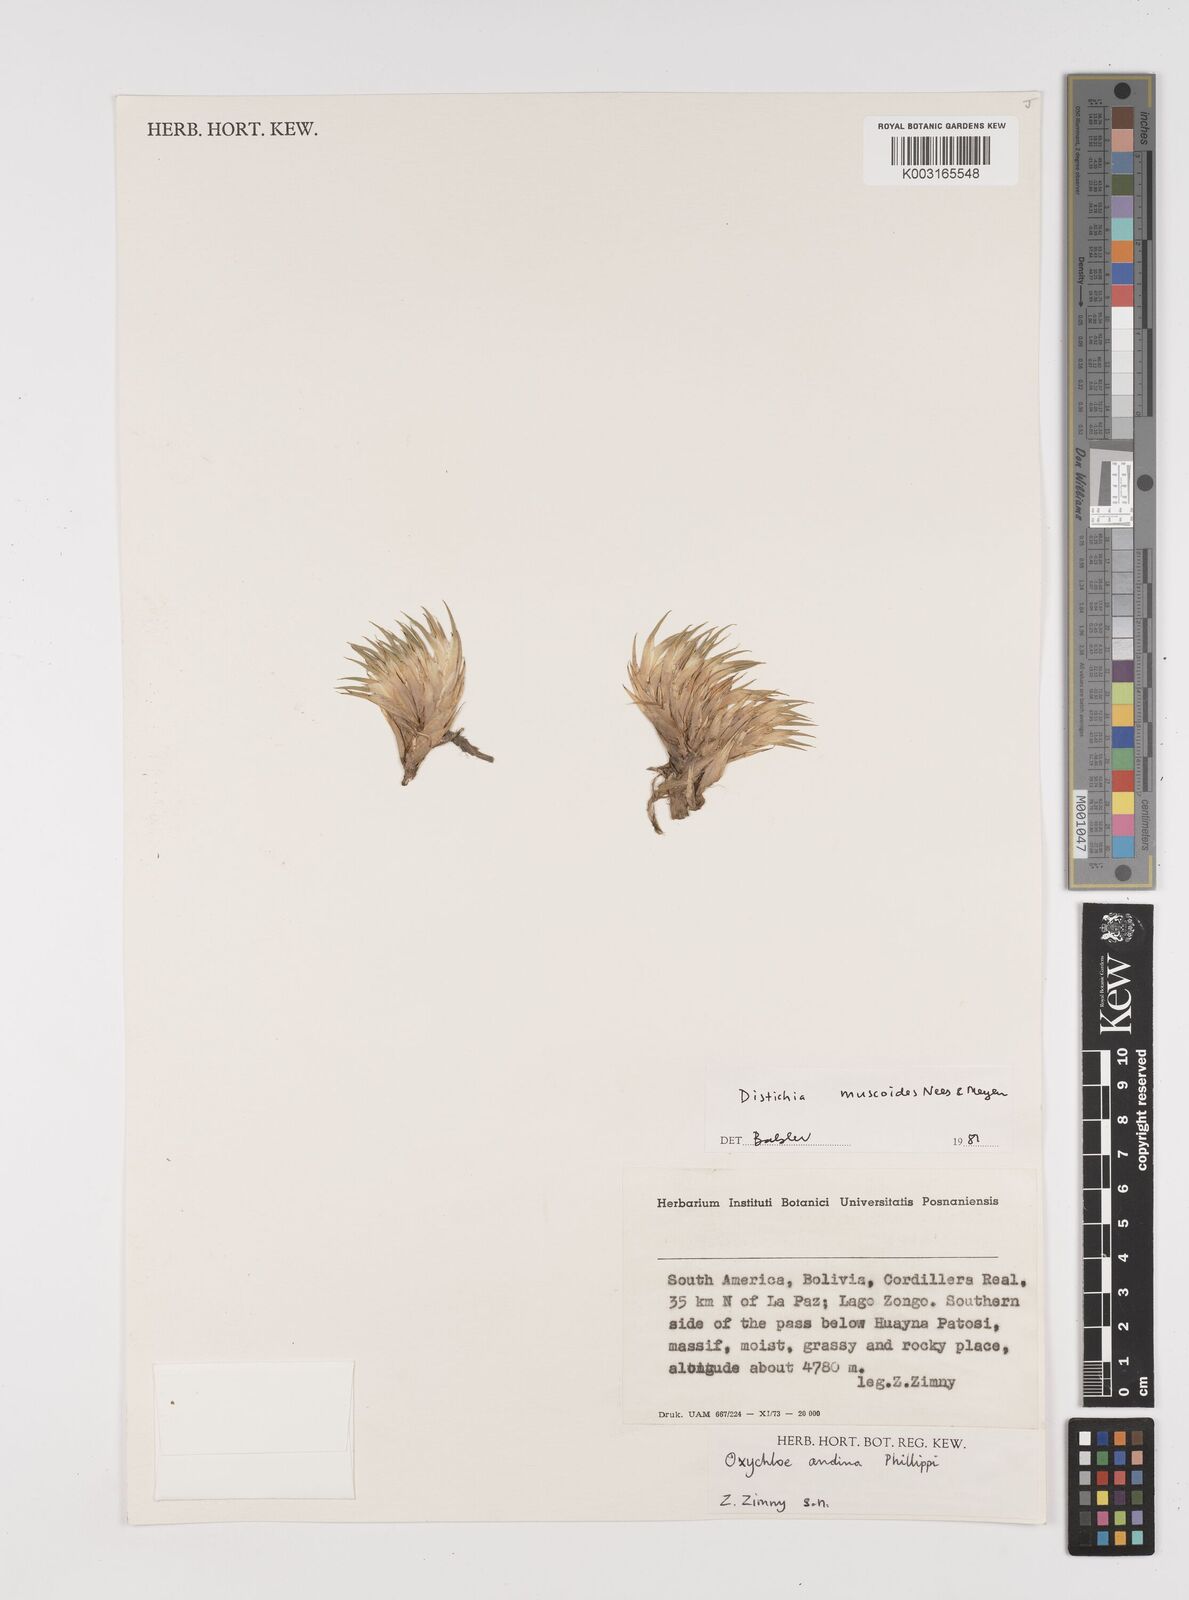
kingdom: Plantae
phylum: Tracheophyta
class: Liliopsida
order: Poales
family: Juncaceae
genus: Distichia
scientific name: Distichia muscoides
